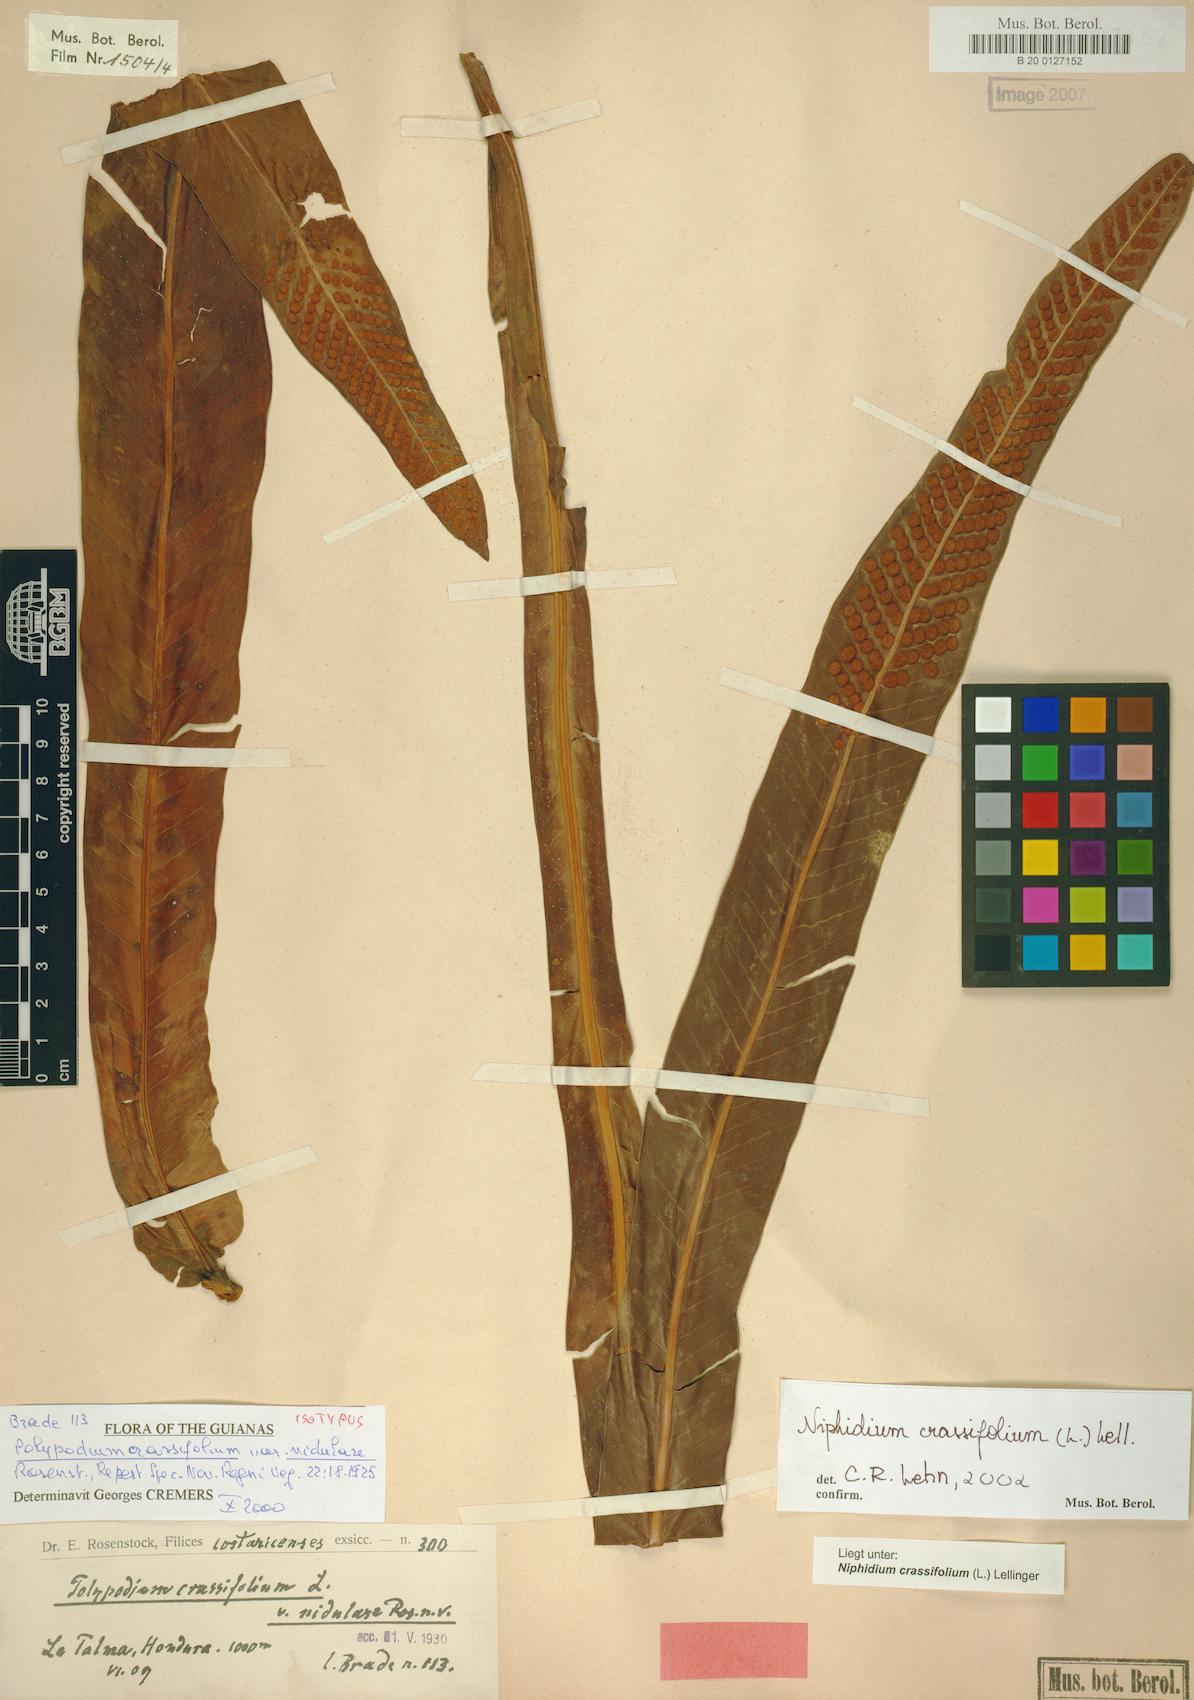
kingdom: Plantae
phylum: Tracheophyta
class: Polypodiopsida
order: Polypodiales
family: Polypodiaceae
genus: Niphidium
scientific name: Niphidium crassifolium
